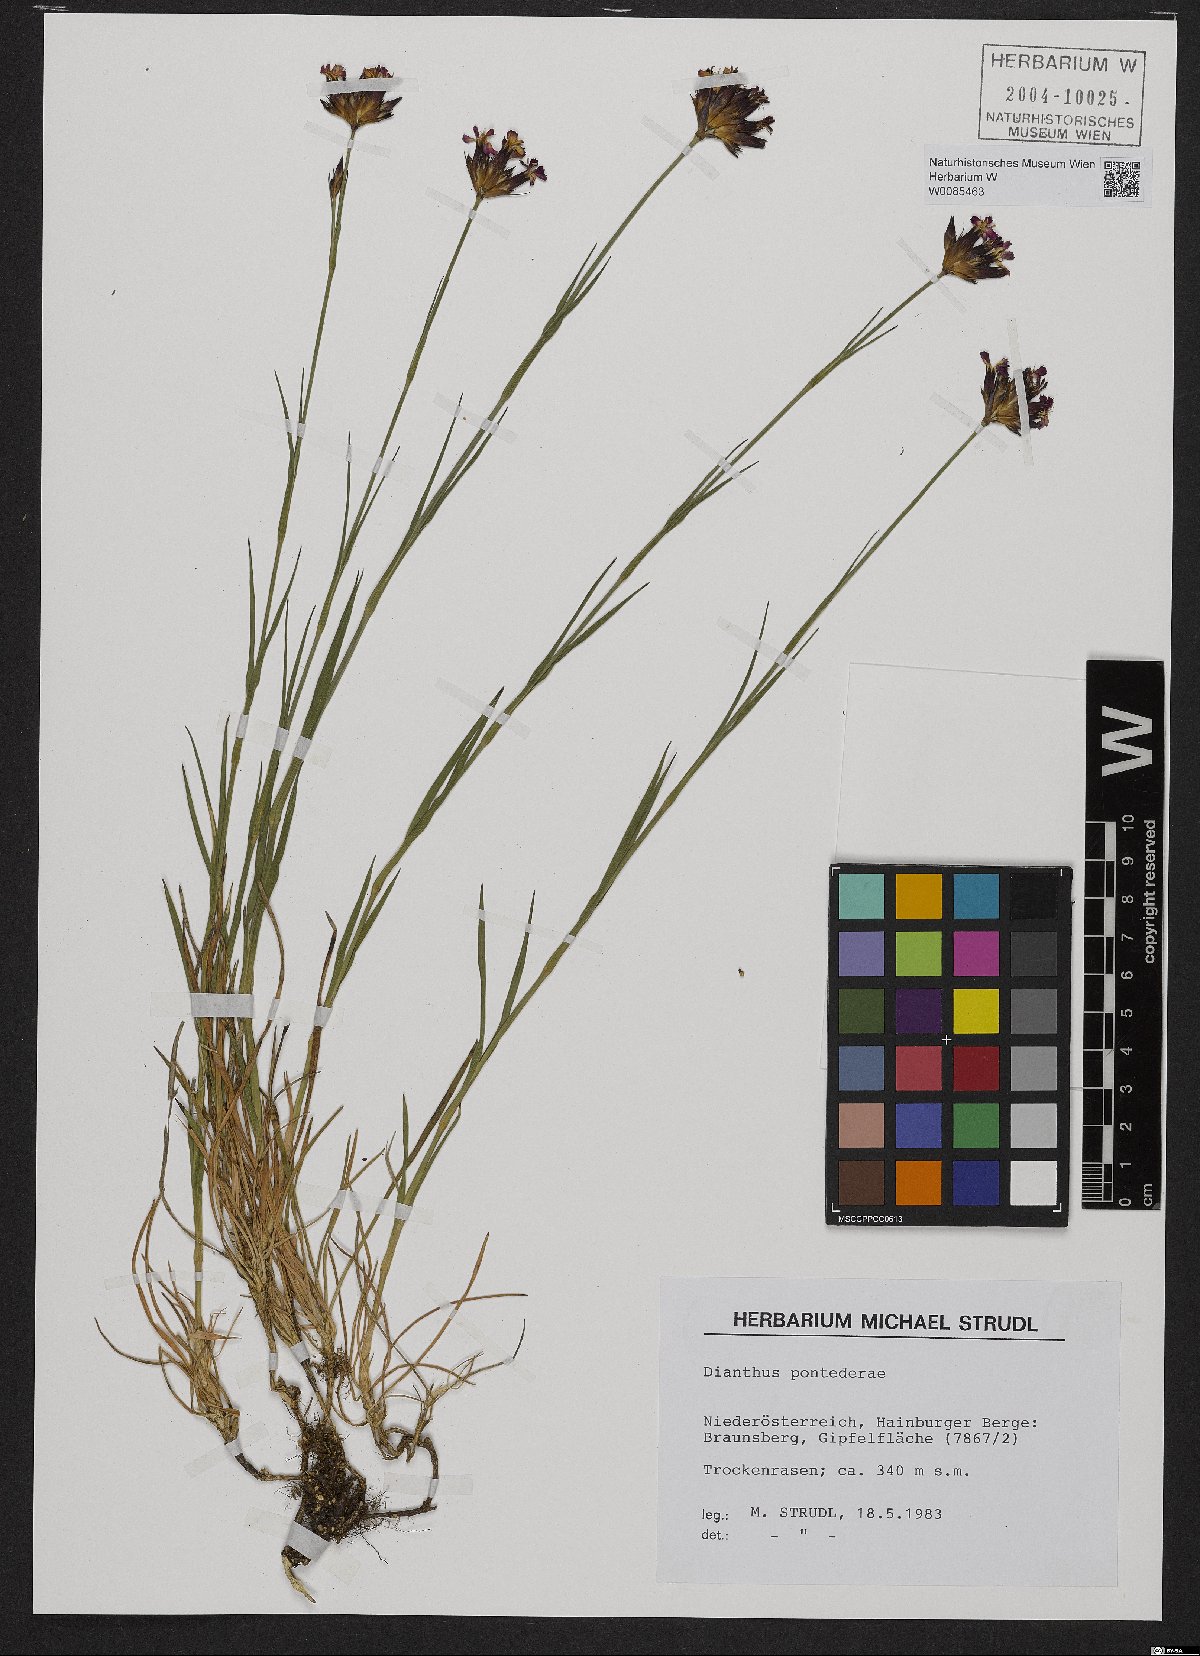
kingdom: Plantae
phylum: Tracheophyta
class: Magnoliopsida
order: Caryophyllales
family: Caryophyllaceae
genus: Dianthus
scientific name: Dianthus pontederae
